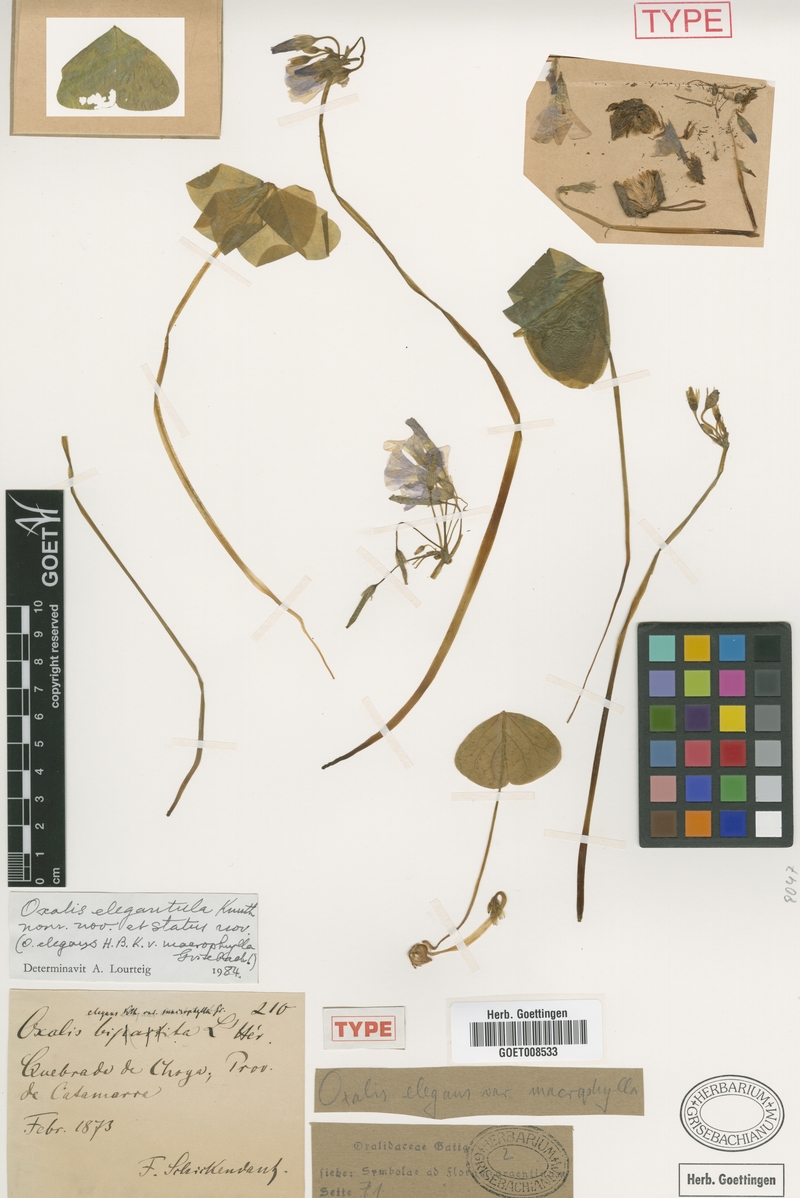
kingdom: Plantae
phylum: Tracheophyta
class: Magnoliopsida
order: Oxalidales
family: Oxalidaceae
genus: Oxalis
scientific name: Oxalis trollii
